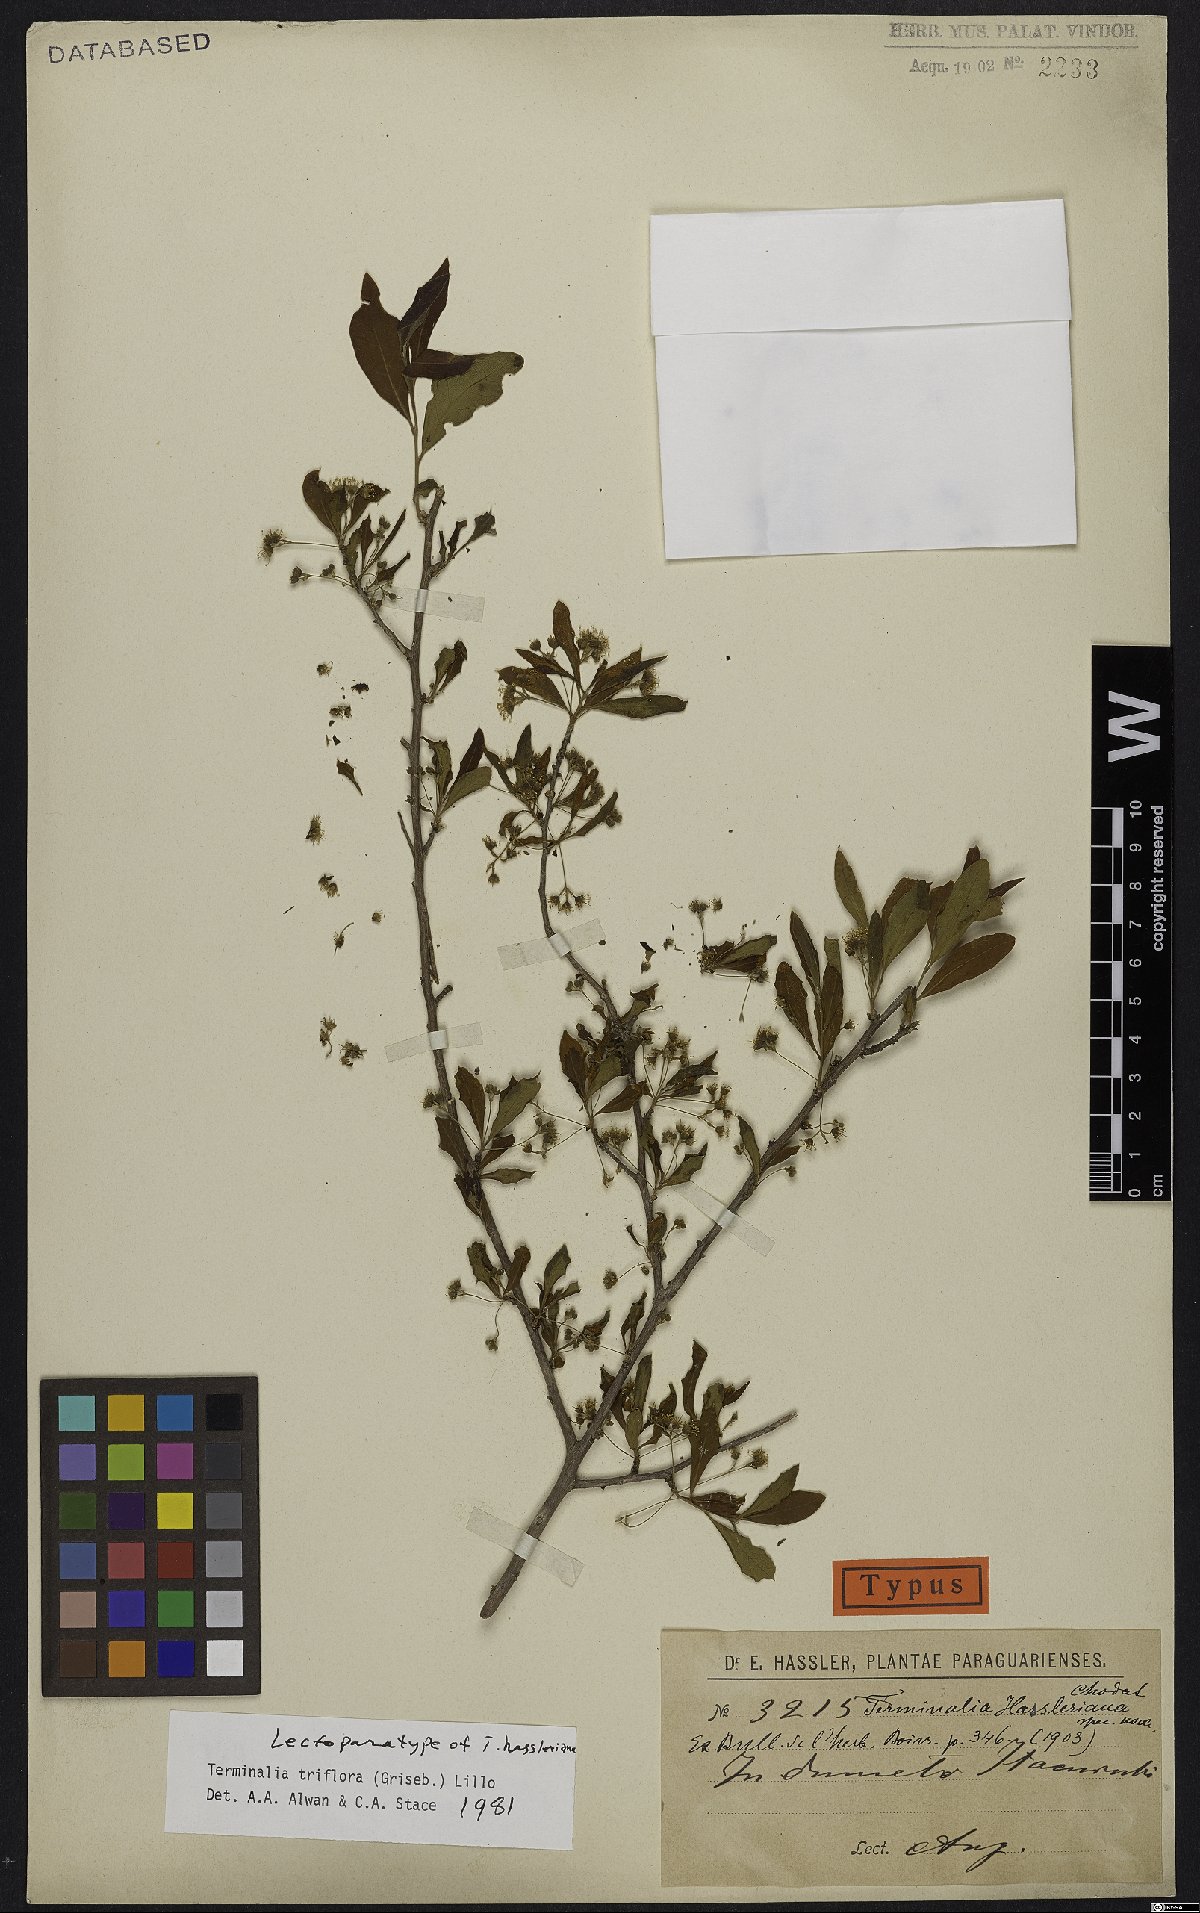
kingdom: Plantae
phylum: Tracheophyta
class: Magnoliopsida
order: Myrtales
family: Combretaceae
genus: Terminalia
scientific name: Terminalia triflora
